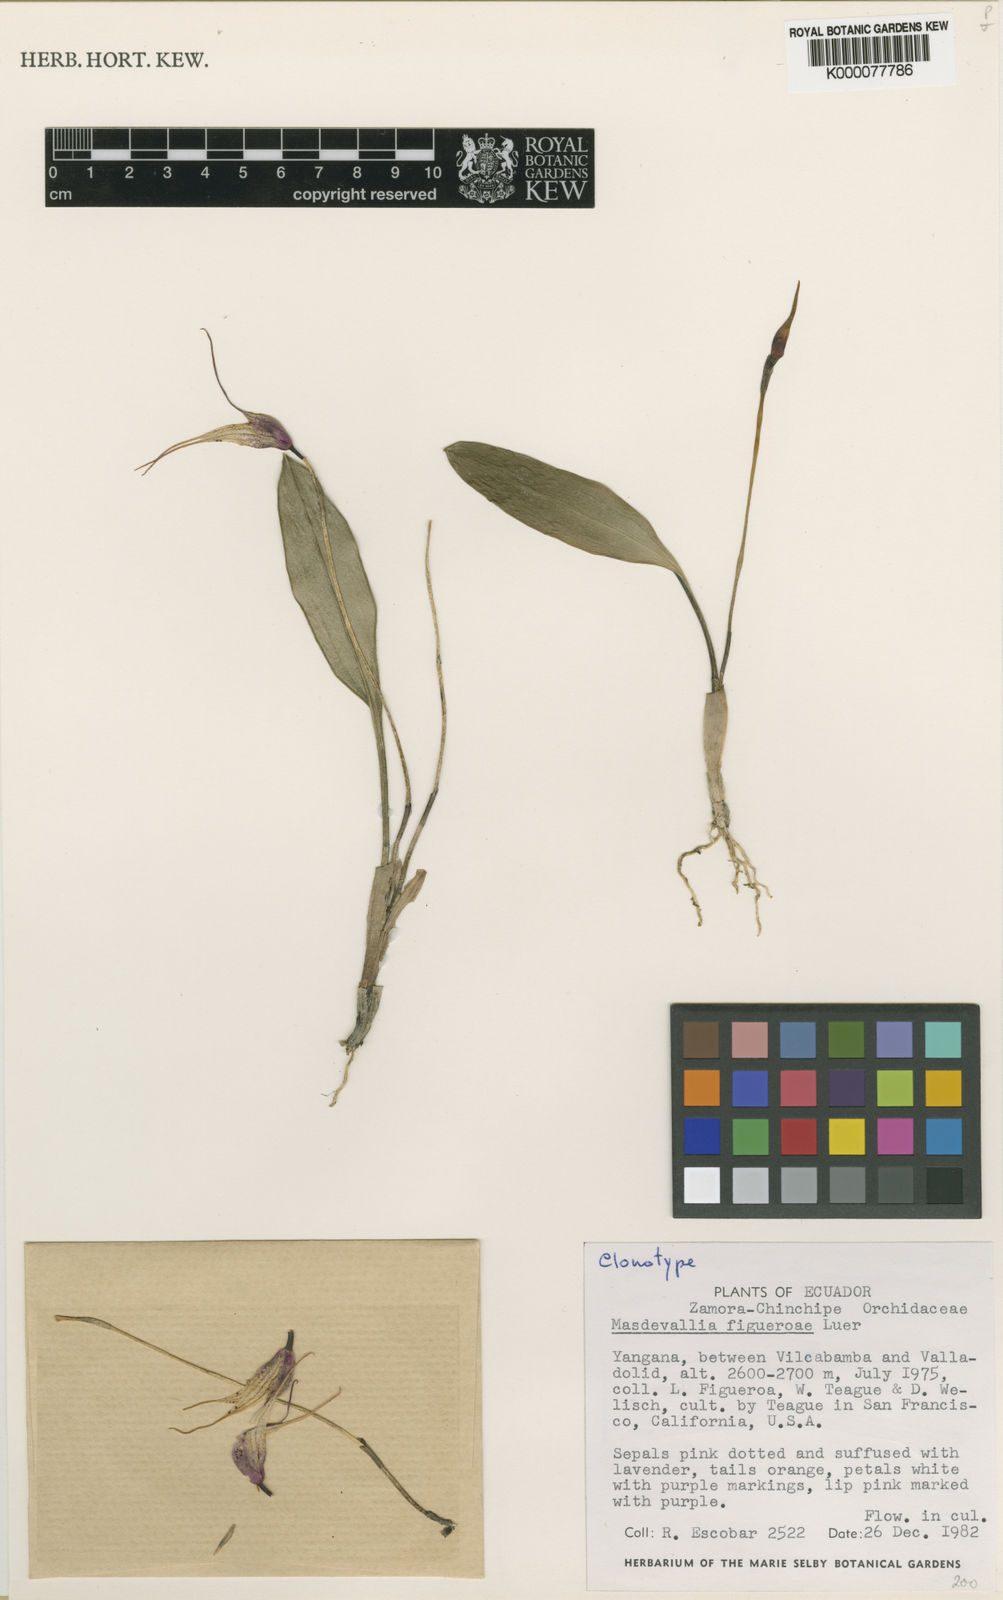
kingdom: Plantae
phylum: Tracheophyta
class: Liliopsida
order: Asparagales
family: Orchidaceae
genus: Masdevallia
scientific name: Masdevallia
